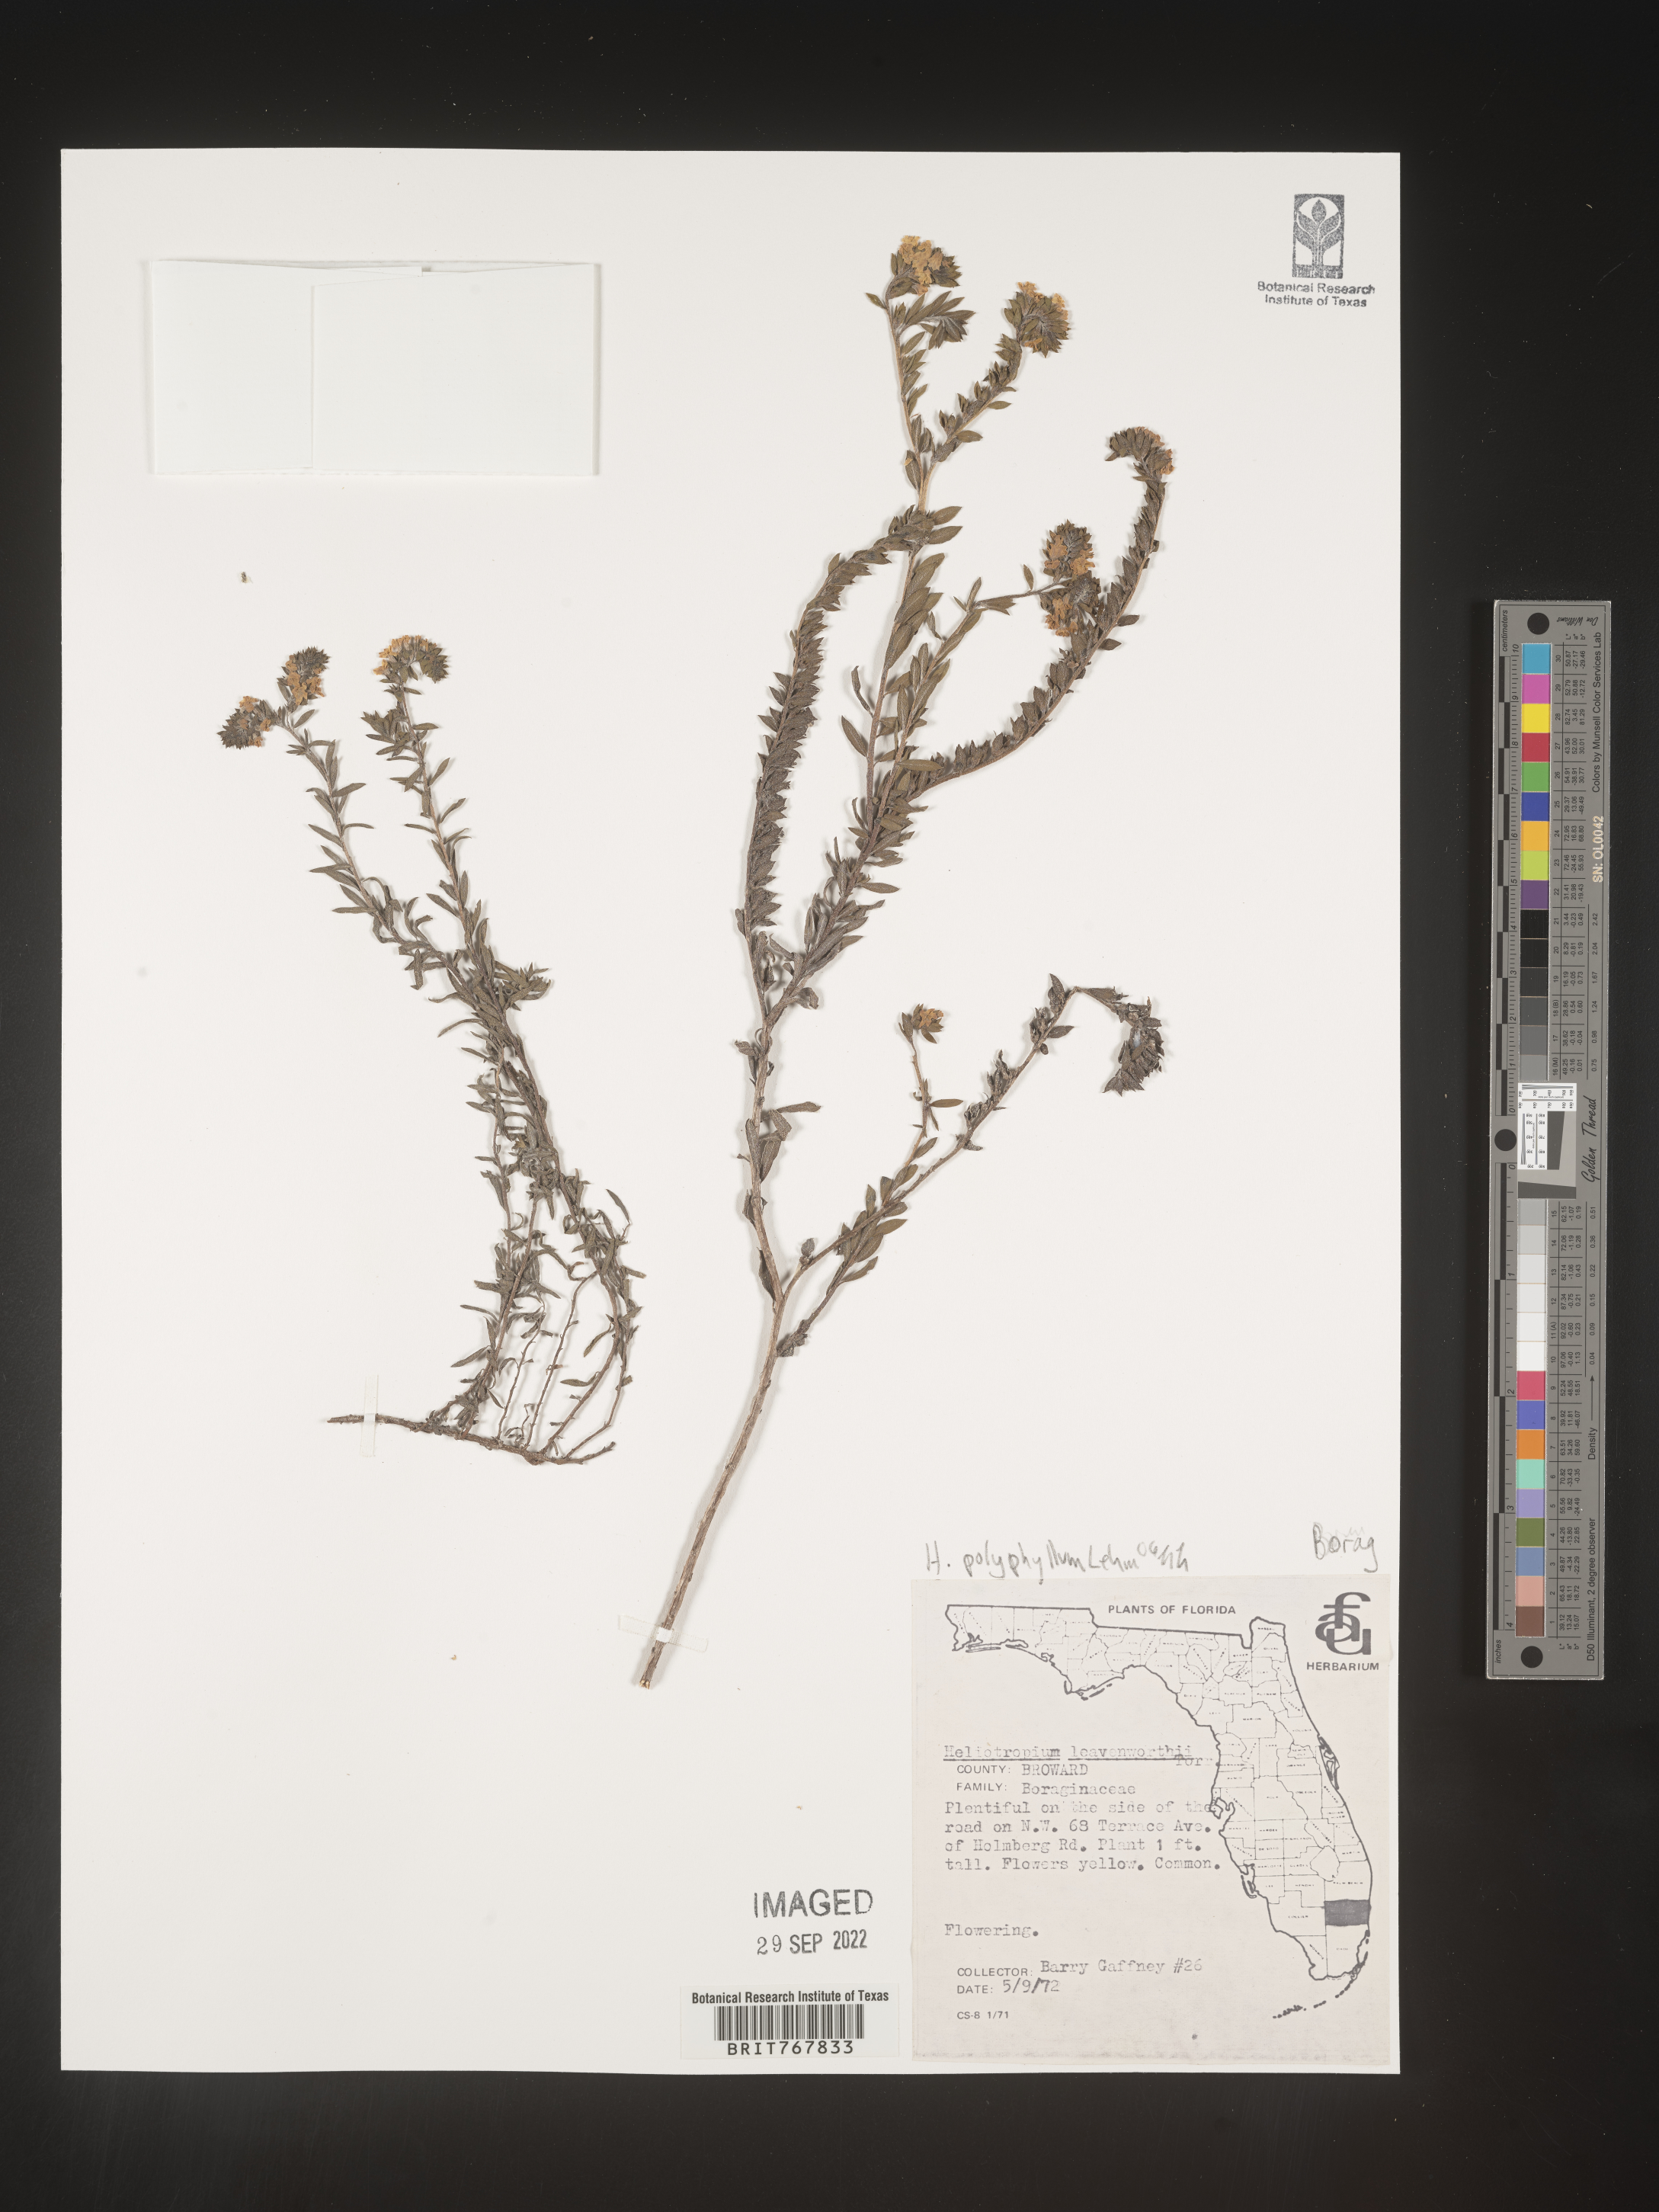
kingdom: Plantae
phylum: Tracheophyta
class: Magnoliopsida
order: Boraginales
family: Heliotropiaceae
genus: Heliotropium
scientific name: Heliotropium
